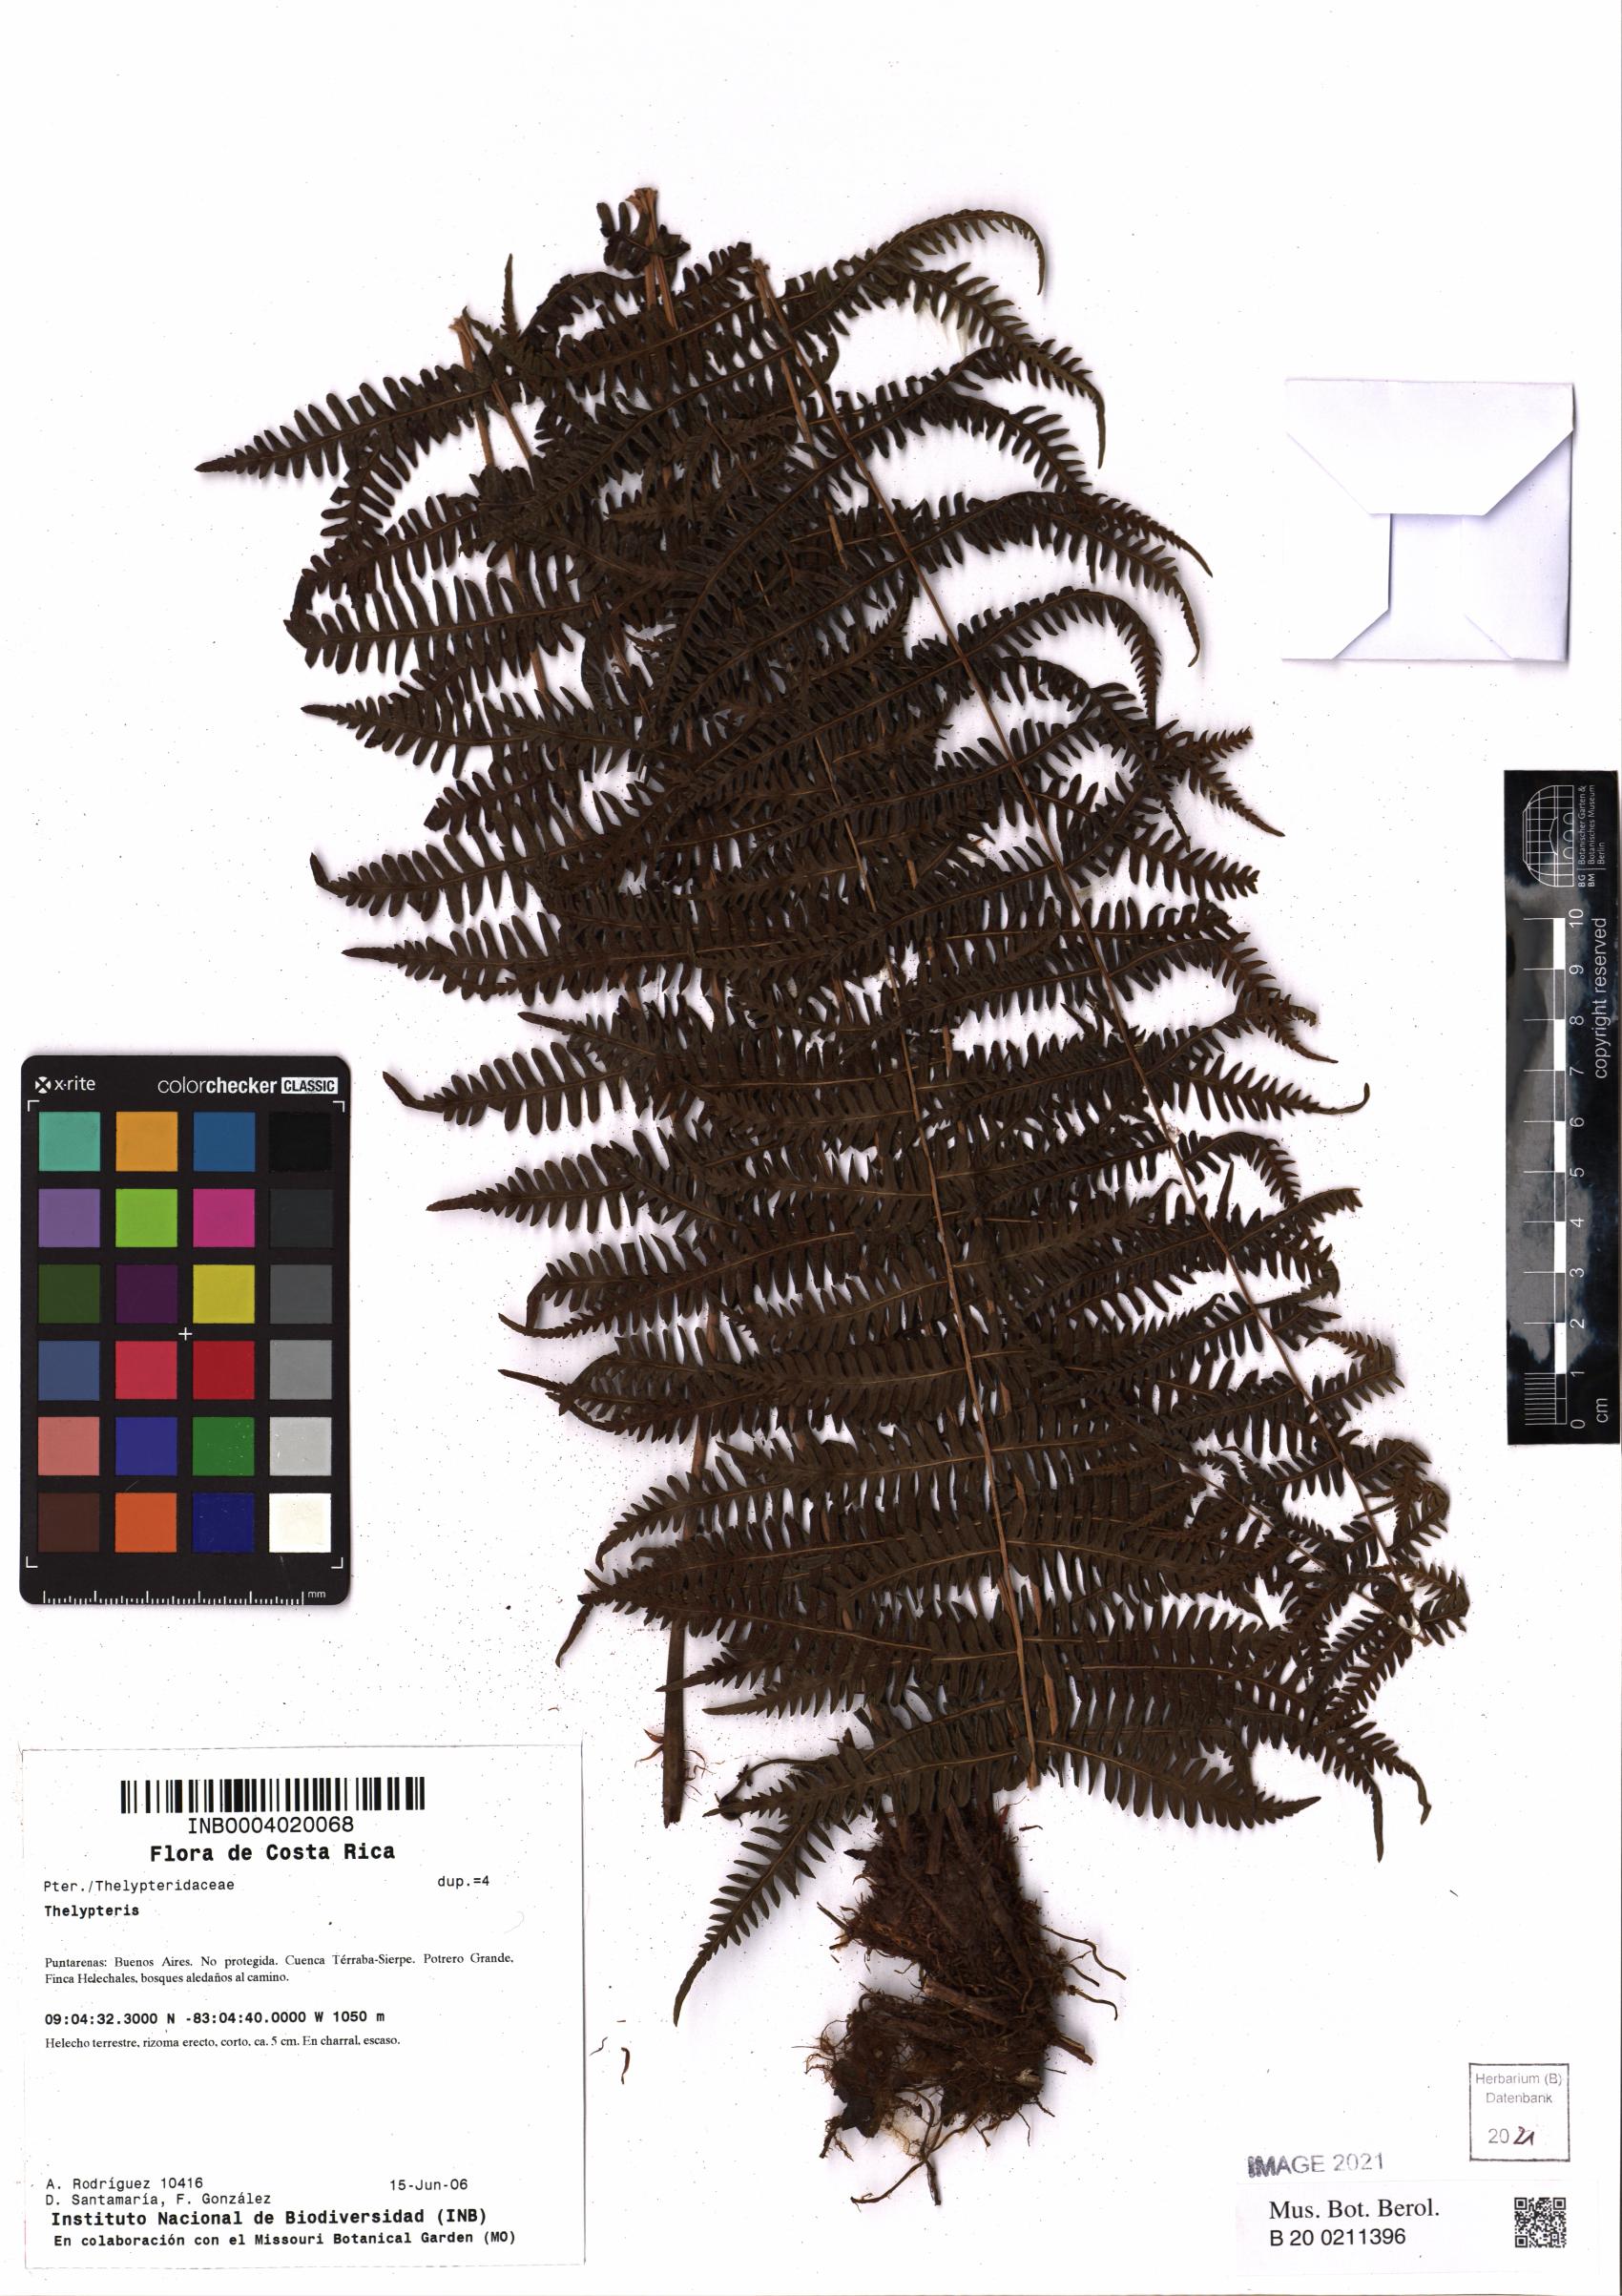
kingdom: Plantae
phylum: Tracheophyta
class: Polypodiopsida
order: Polypodiales
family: Thelypteridaceae
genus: Thelypteris
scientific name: Thelypteris
